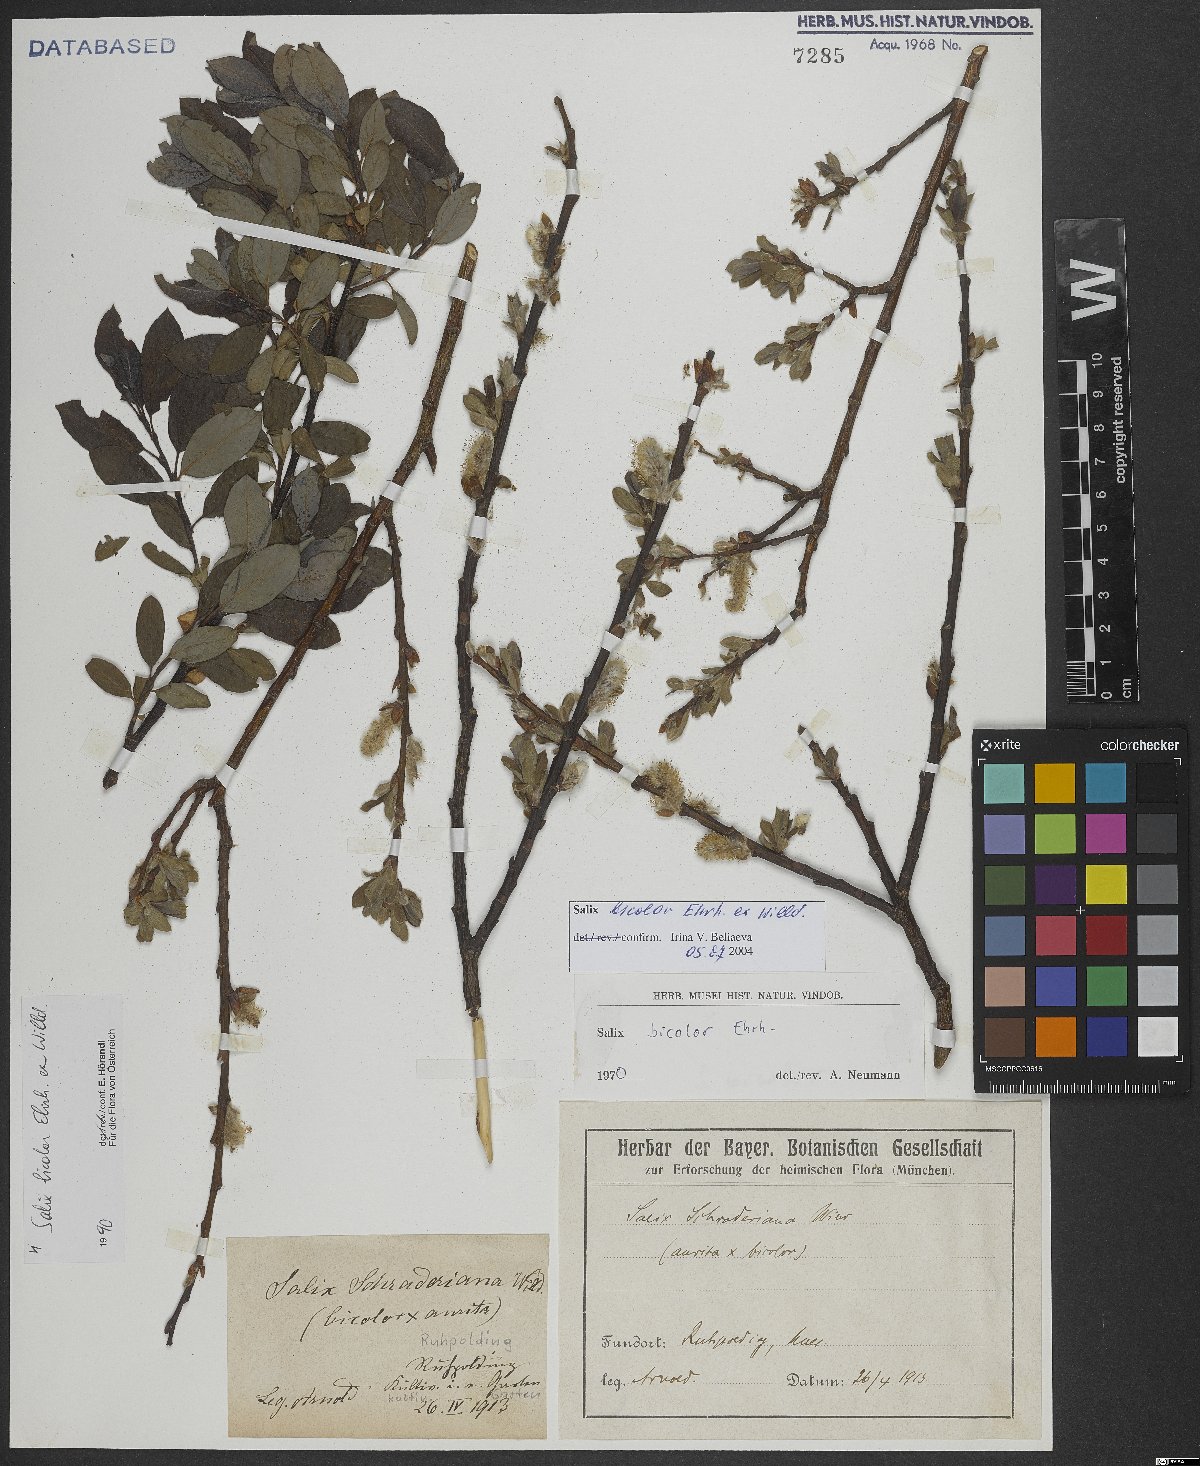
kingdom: Plantae
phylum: Tracheophyta
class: Magnoliopsida
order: Malpighiales
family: Salicaceae
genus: Salix
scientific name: Salix bicolor
